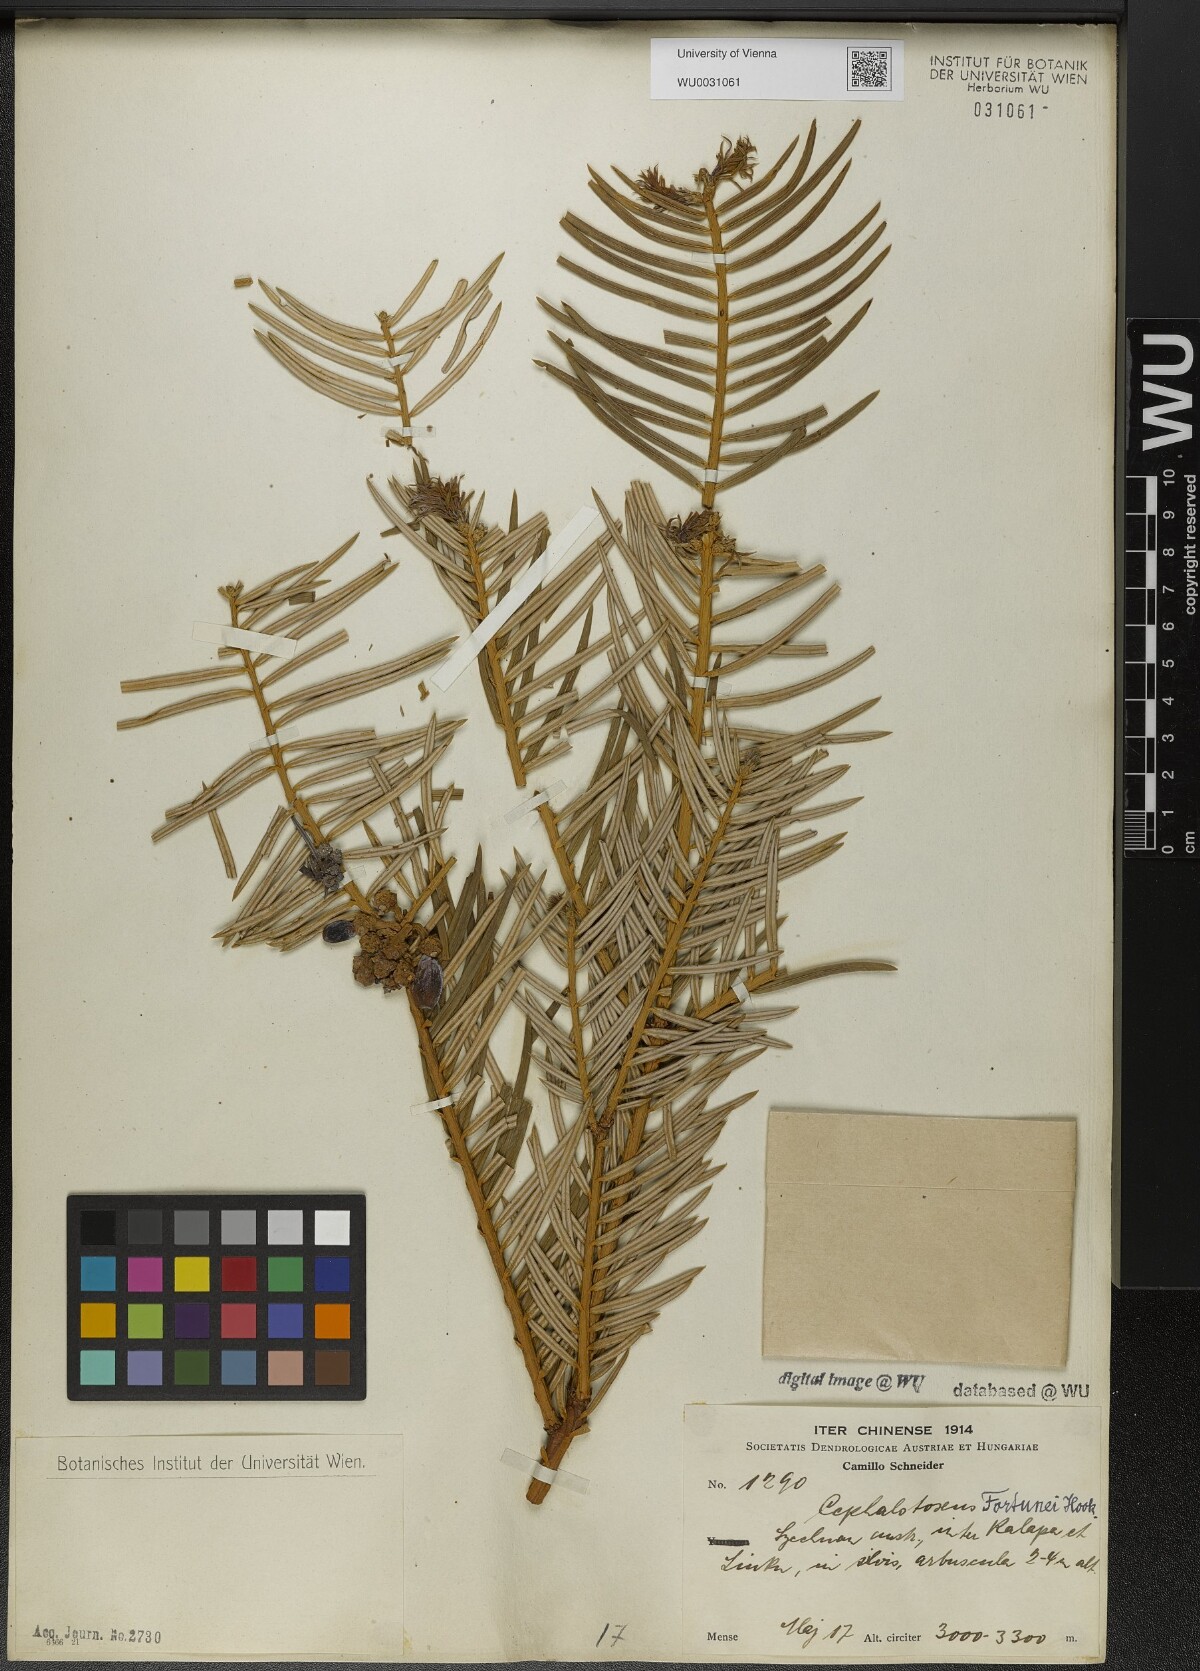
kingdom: Plantae
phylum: Tracheophyta
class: Pinopsida
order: Pinales
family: Cephalotaxaceae
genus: Cephalotaxus
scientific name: Cephalotaxus fortunei
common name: Chinese plum-yew
